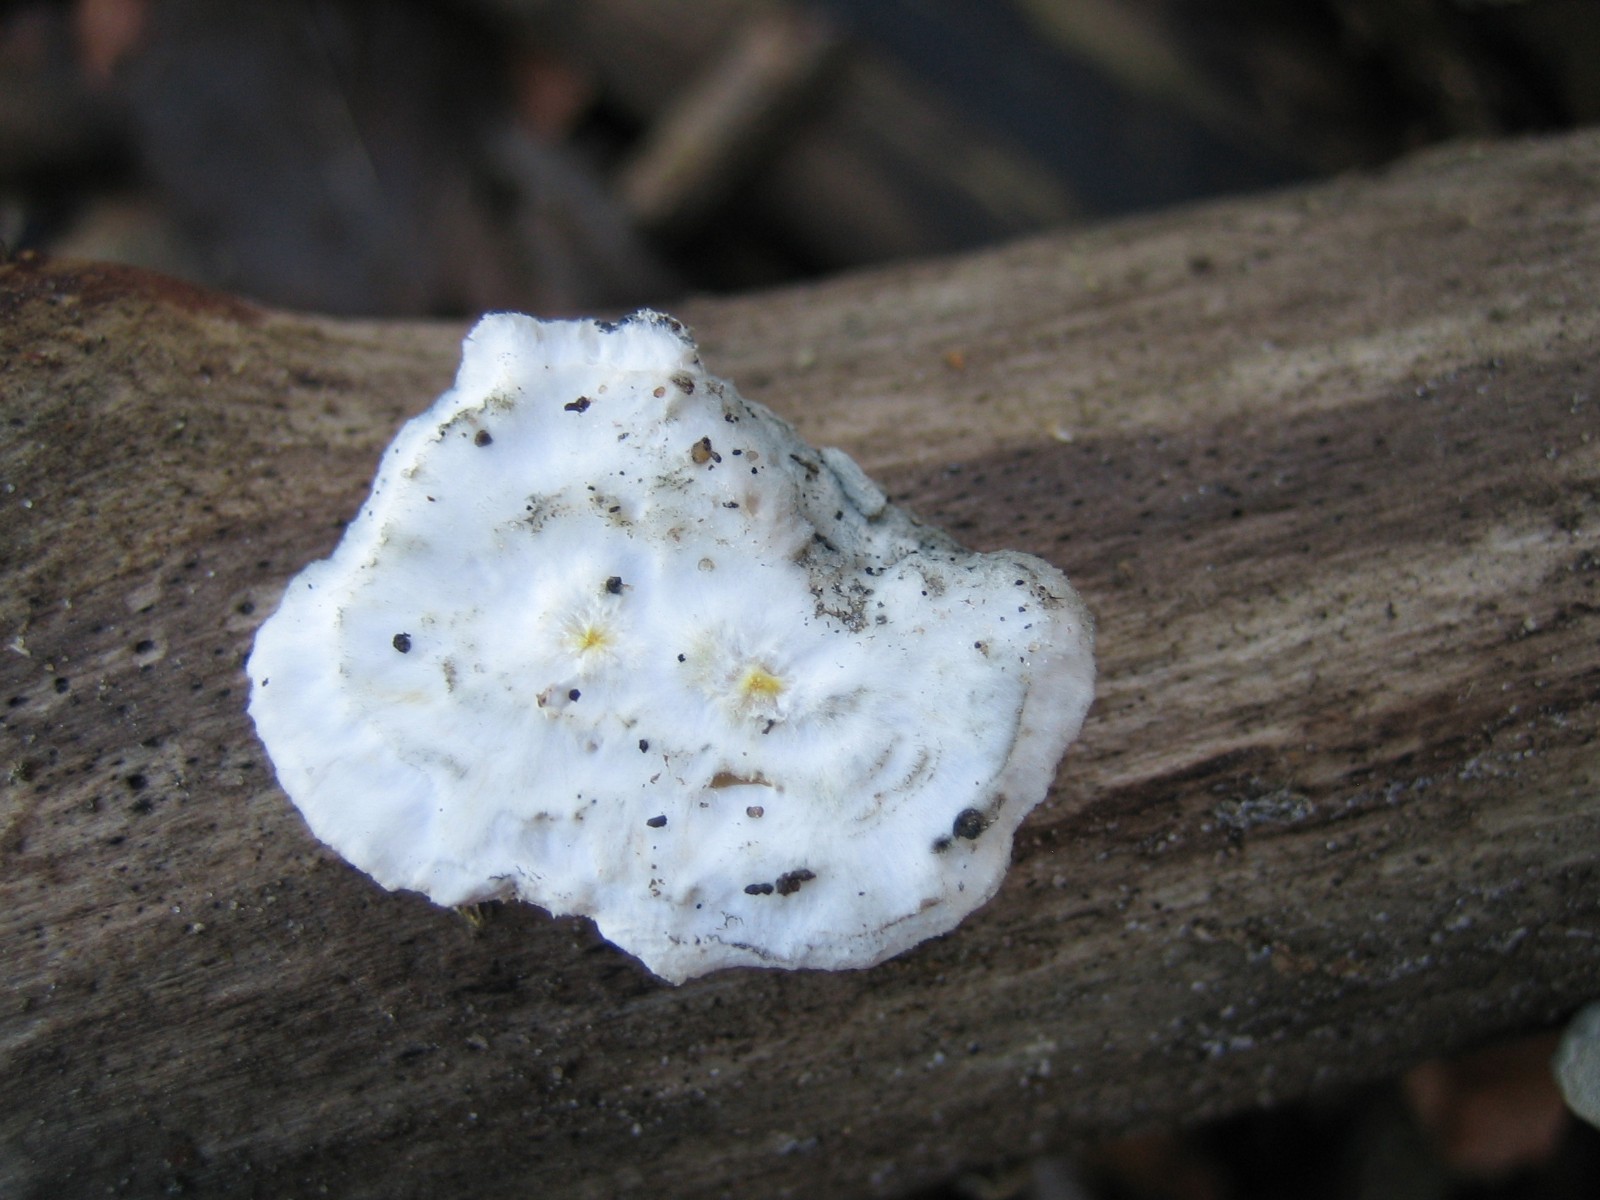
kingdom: Fungi
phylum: Basidiomycota
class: Agaricomycetes
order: Polyporales
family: Incrustoporiaceae
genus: Tyromyces
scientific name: Tyromyces lacteus
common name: mælkehvid kødporesvamp
